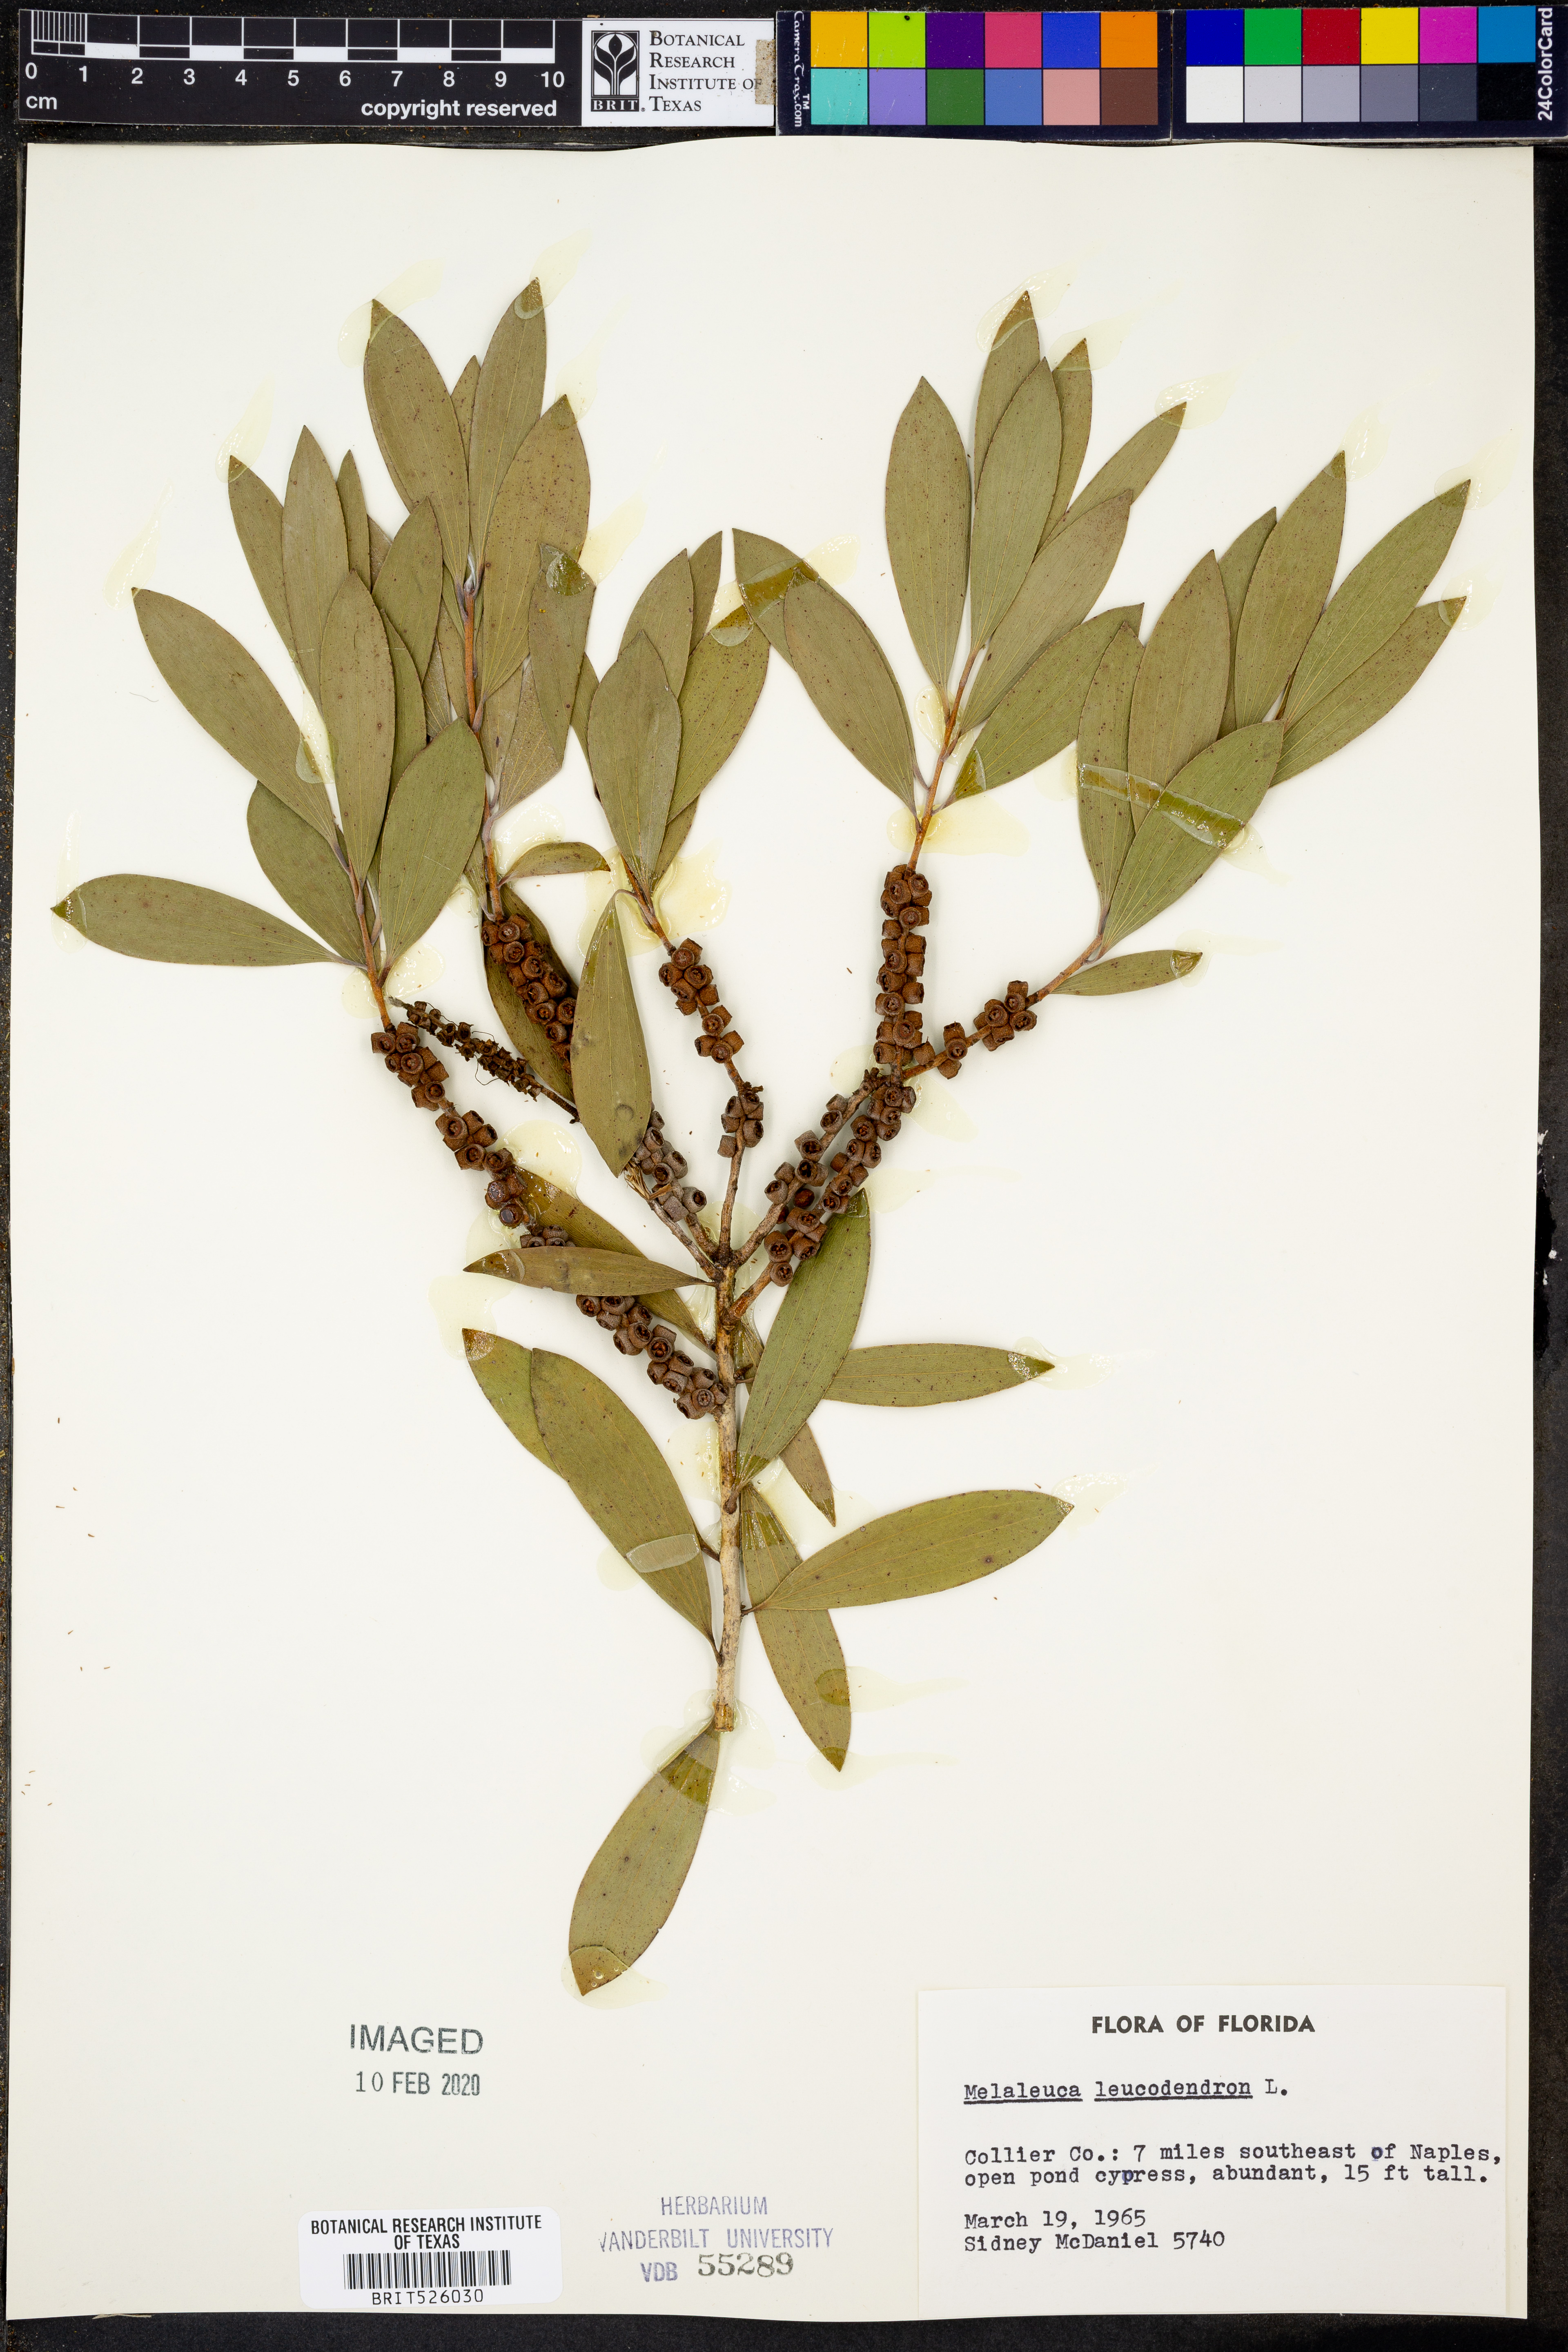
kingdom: Plantae
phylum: Tracheophyta
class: Magnoliopsida
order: Myrtales
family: Myrtaceae
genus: Melaleuca
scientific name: Melaleuca leucadendra
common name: Weeping paperbark
